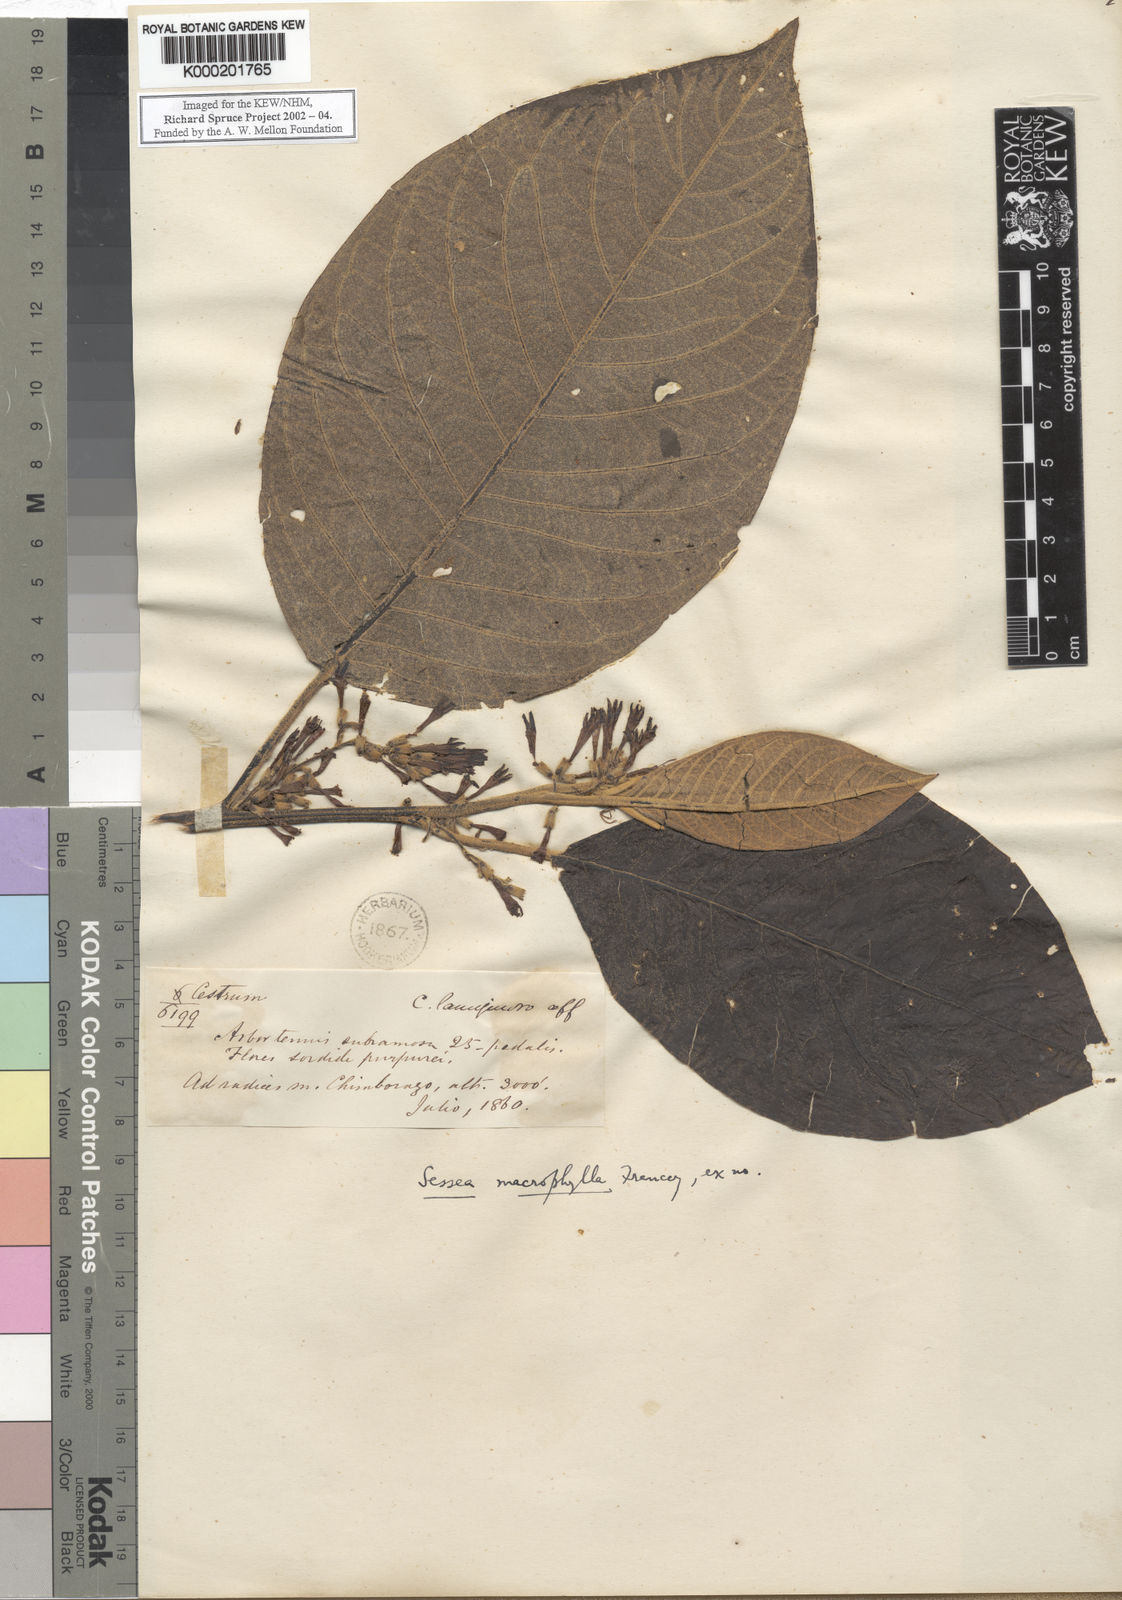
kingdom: Plantae
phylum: Tracheophyta
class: Magnoliopsida
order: Solanales
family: Solanaceae
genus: Cestrum
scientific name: Cestrum humboldtii
